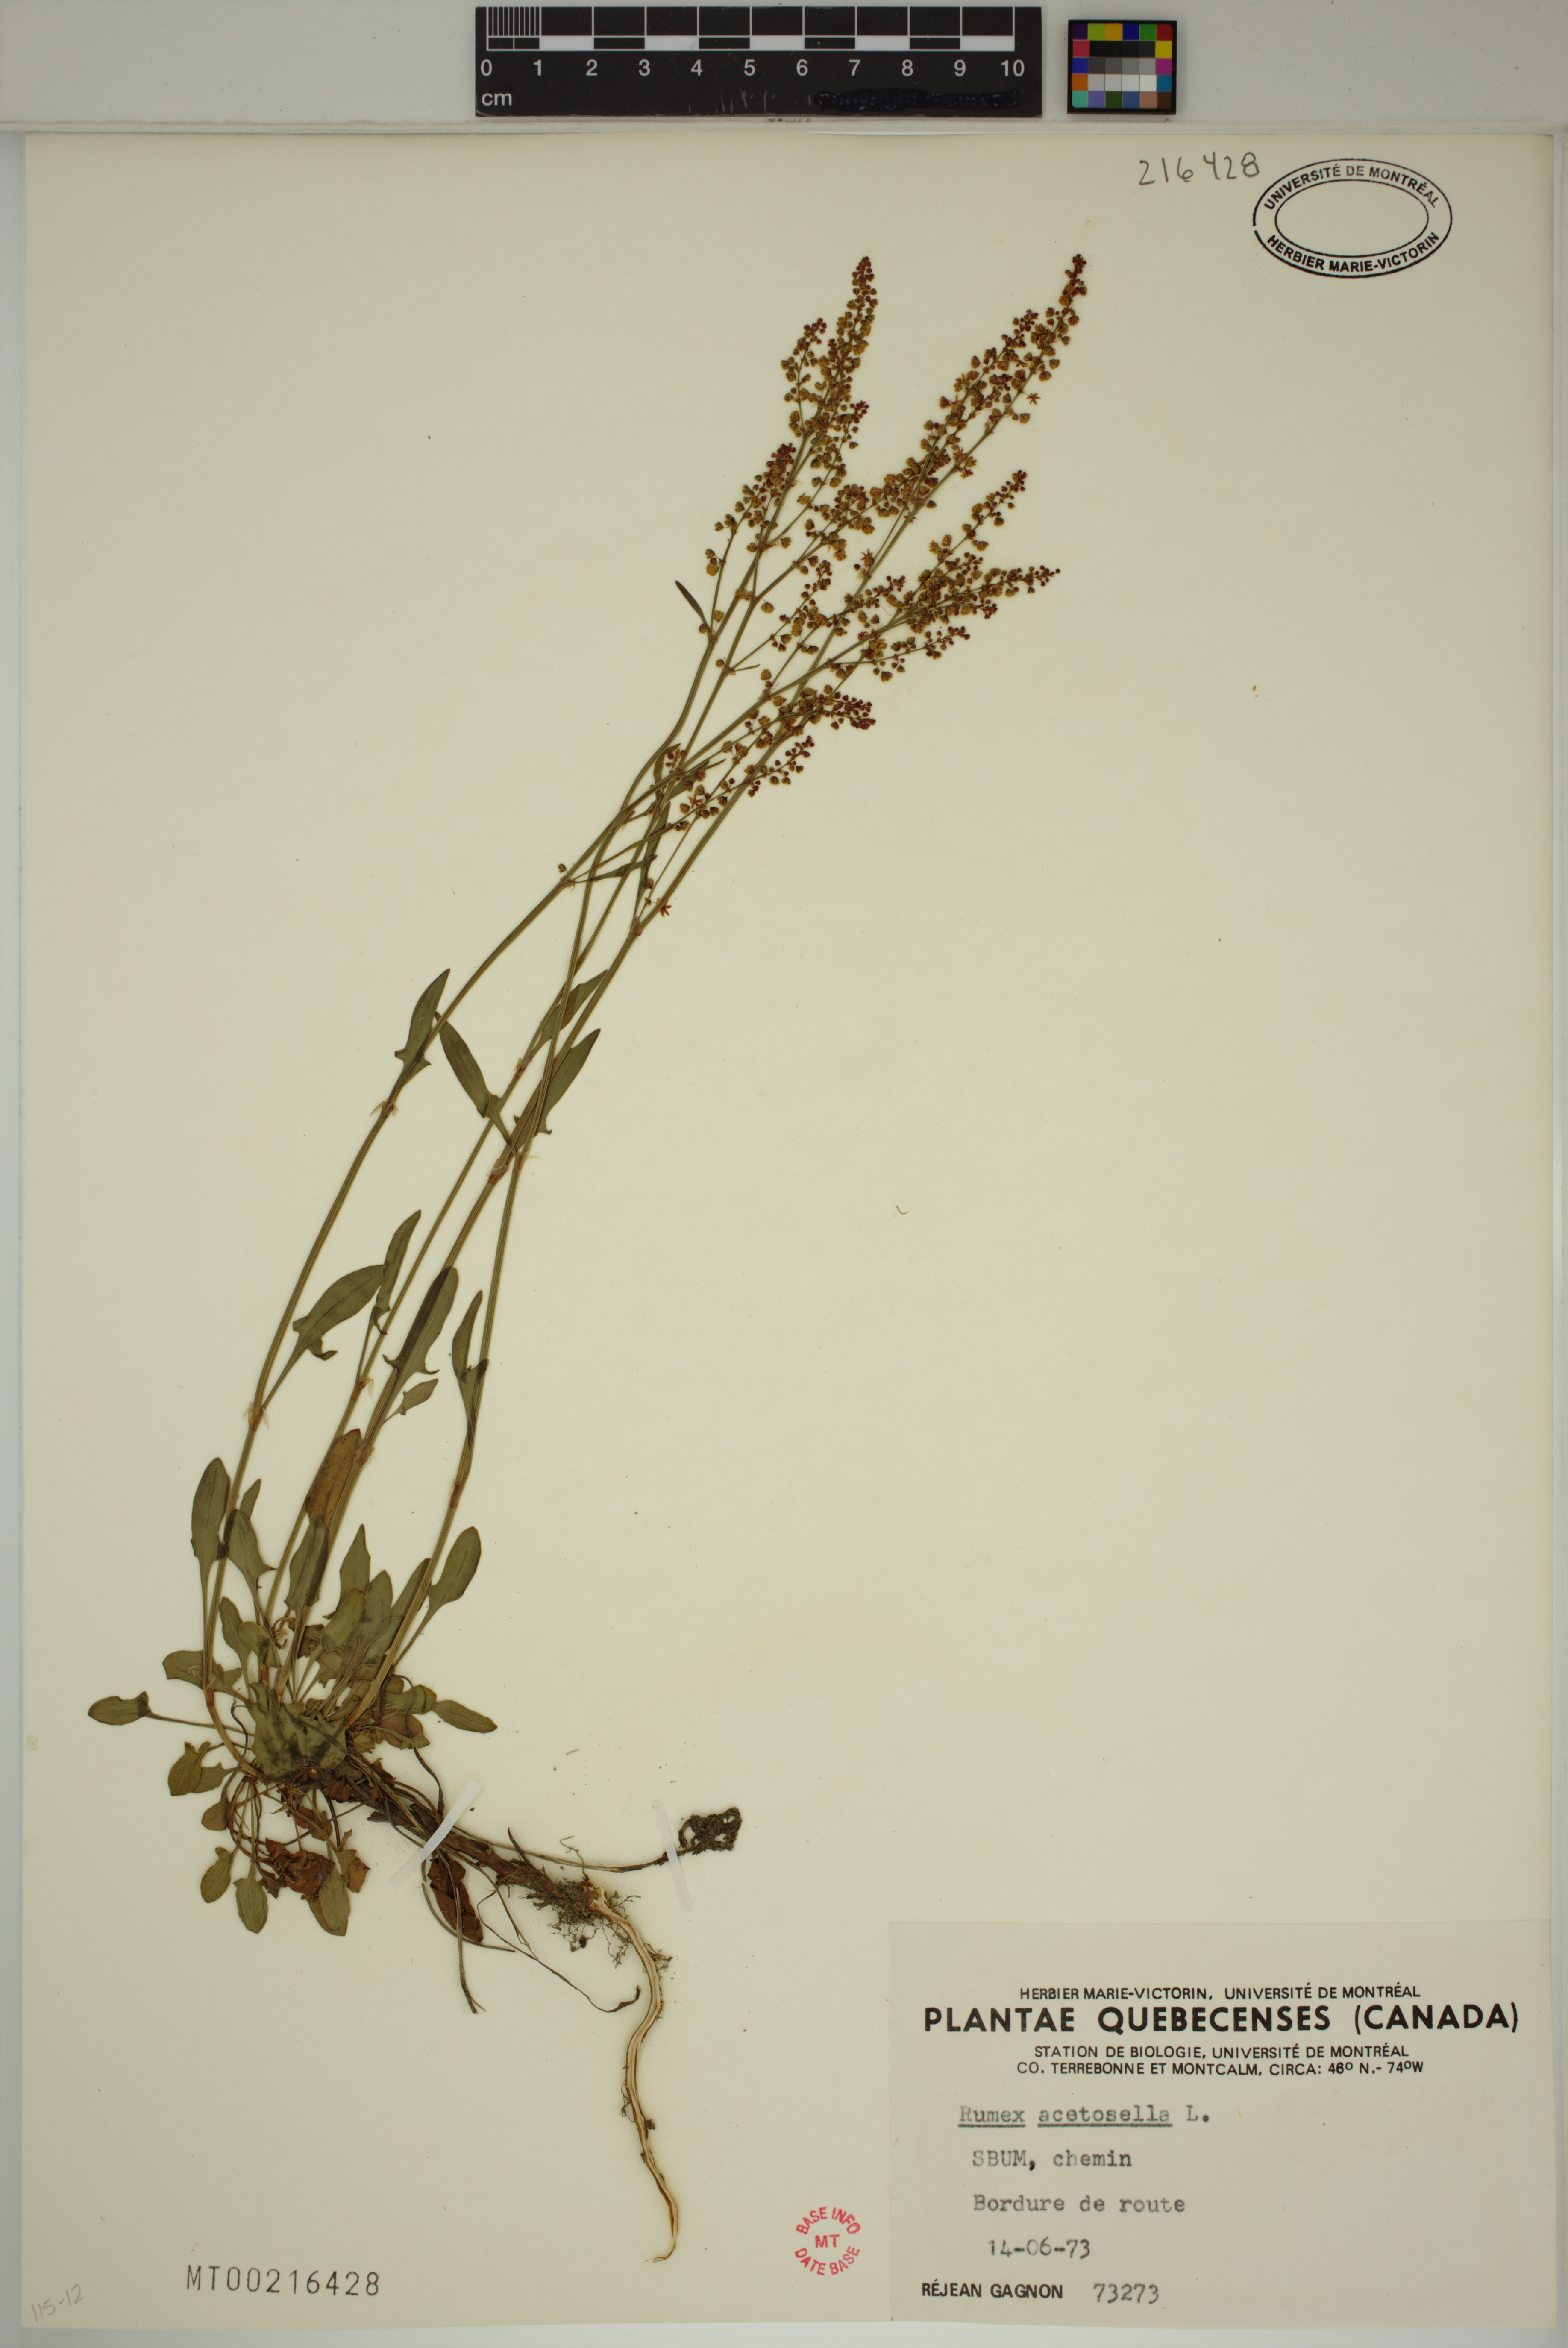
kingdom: Plantae
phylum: Tracheophyta
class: Magnoliopsida
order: Caryophyllales
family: Polygonaceae
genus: Rumex
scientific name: Rumex acetosella
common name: Common sheep sorrel
